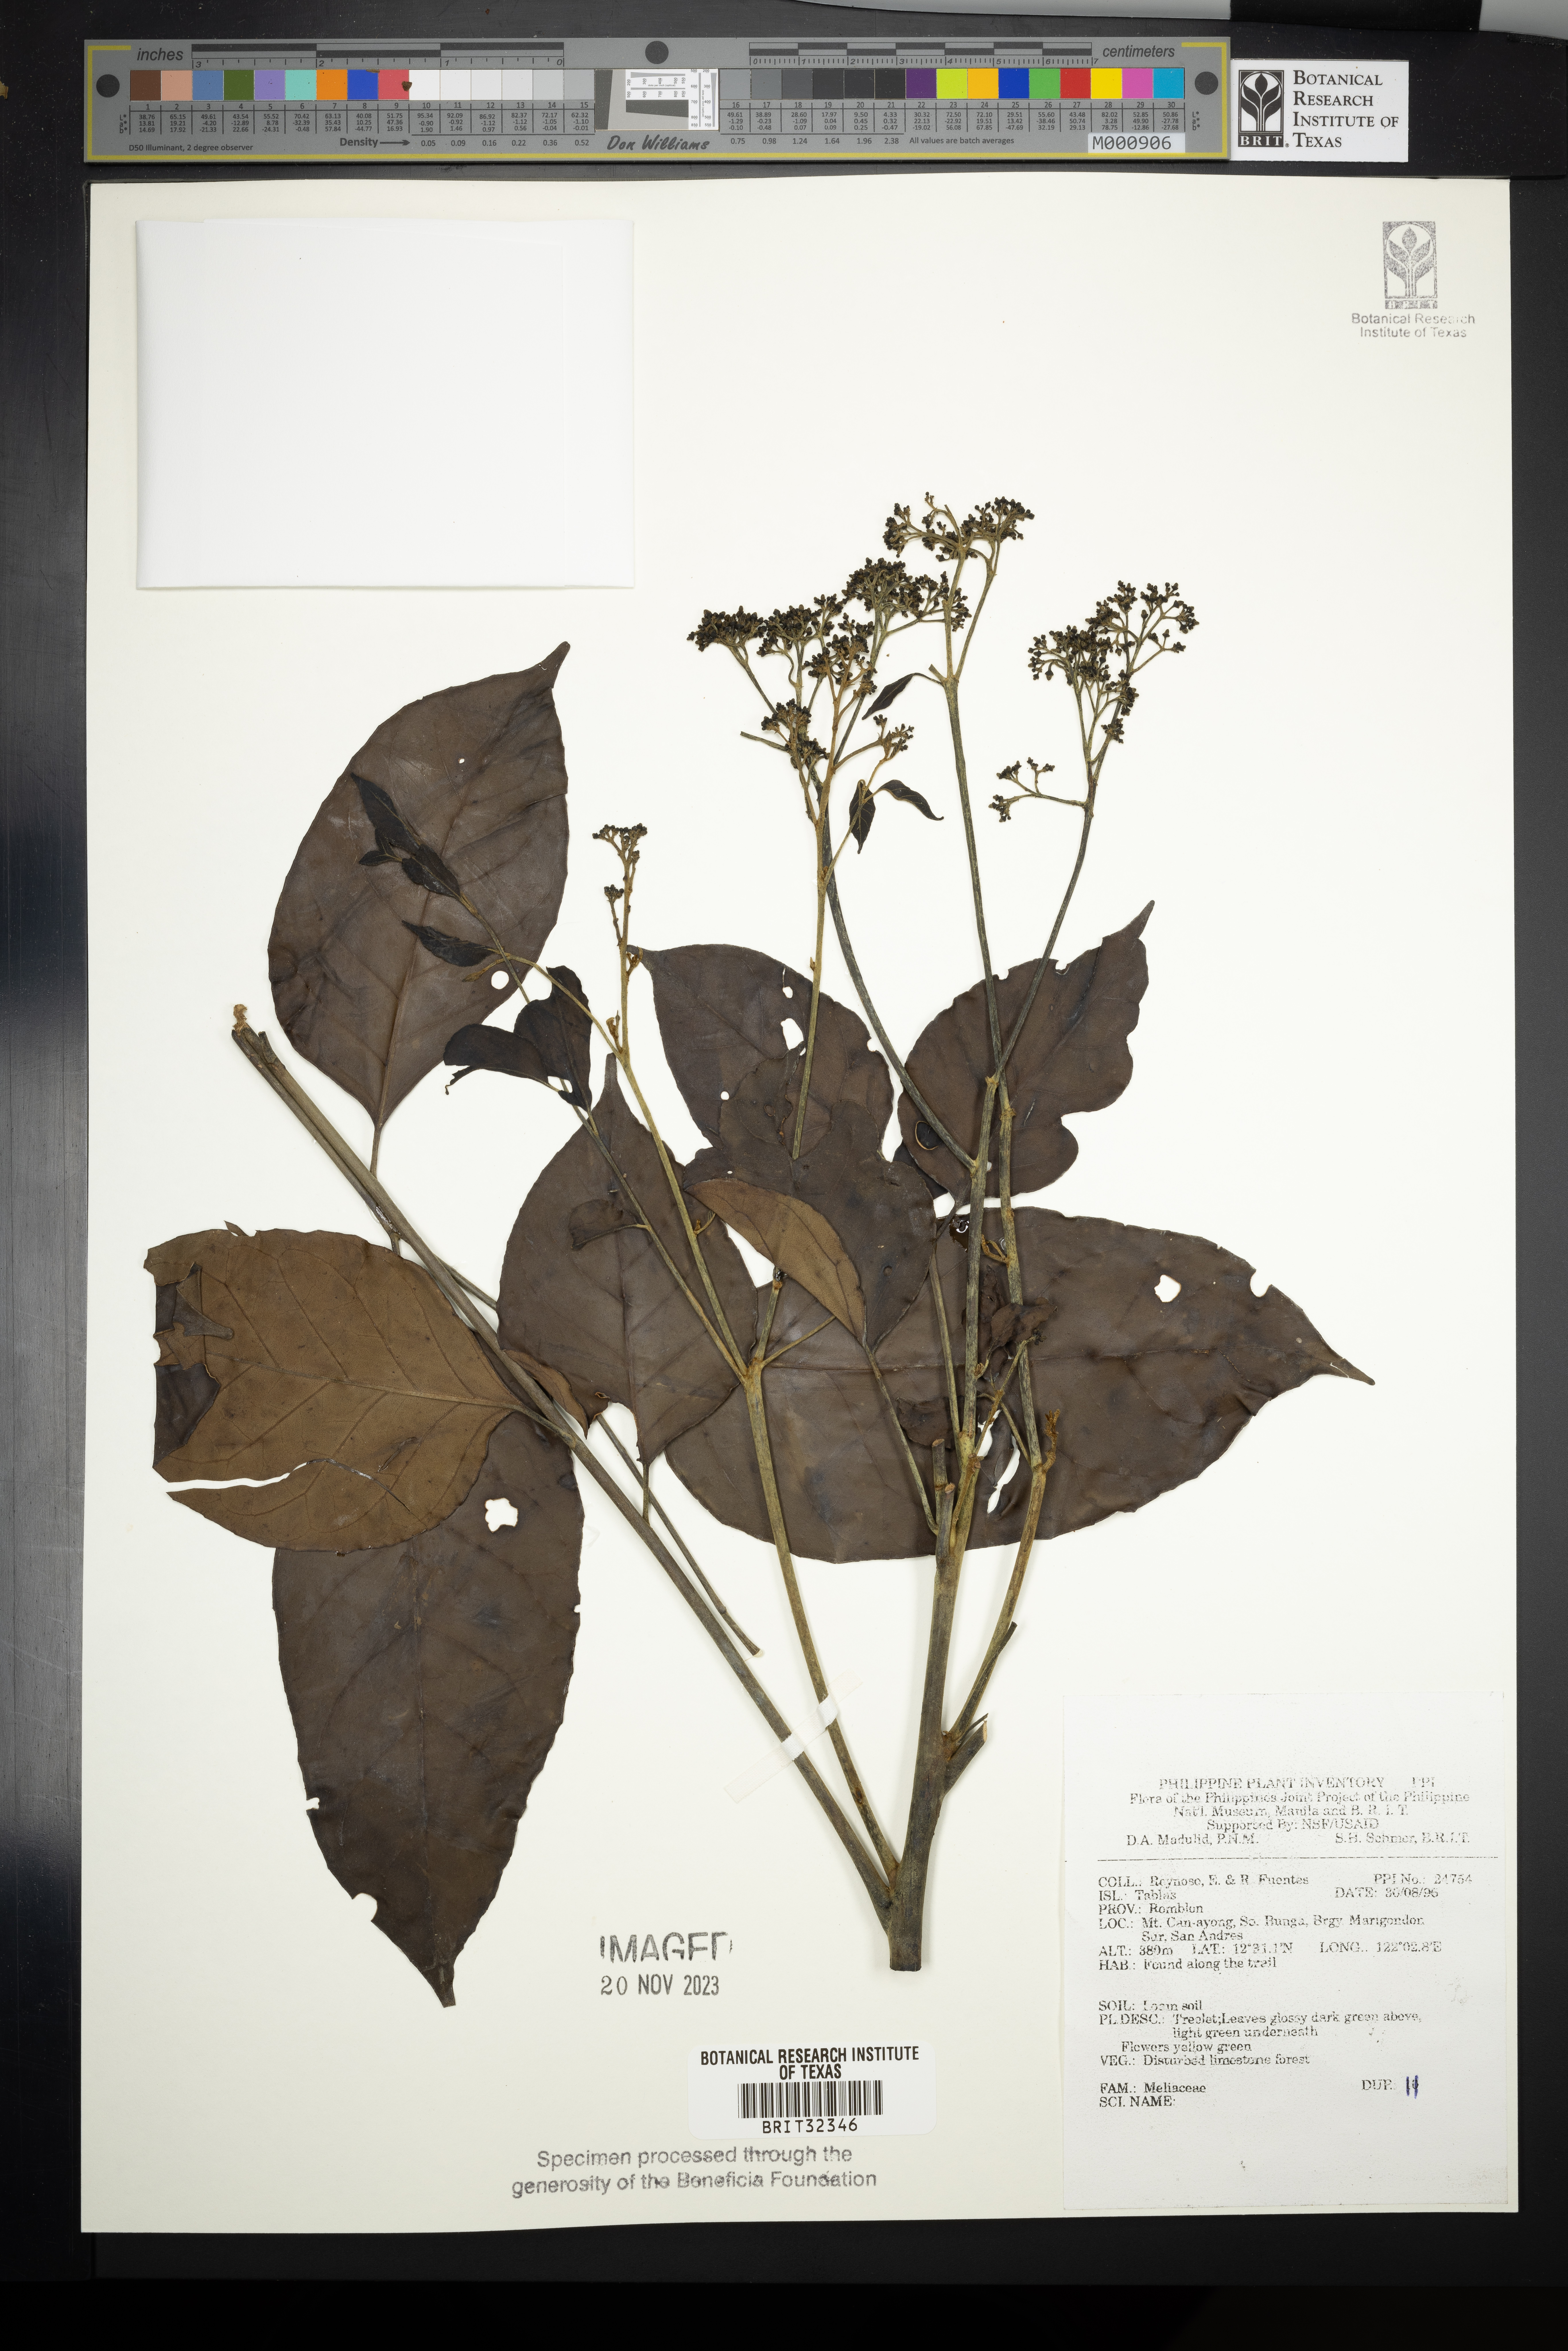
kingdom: Plantae
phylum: Tracheophyta
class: Magnoliopsida
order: Sapindales
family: Meliaceae
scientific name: Meliaceae
